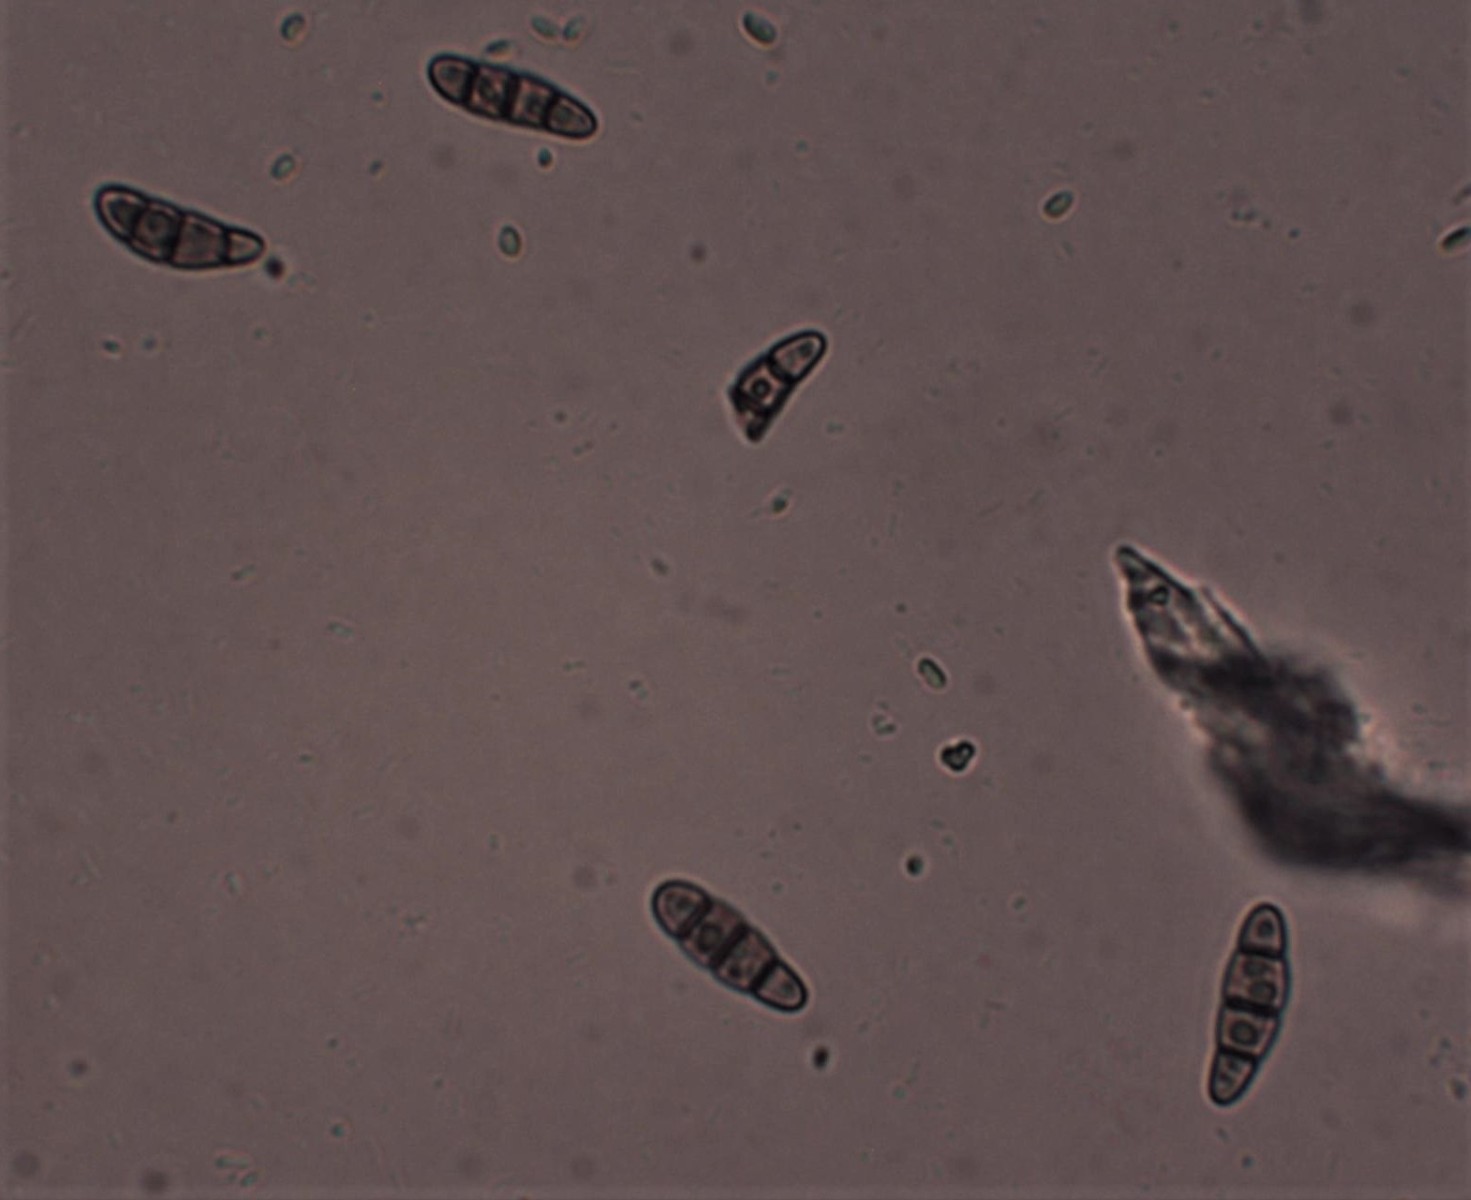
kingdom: Fungi
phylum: Ascomycota
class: Dothideomycetes
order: Hysteriales
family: Hysteriaceae
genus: Hysterium
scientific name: Hysterium acuminatum
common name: almindelig kulmund
